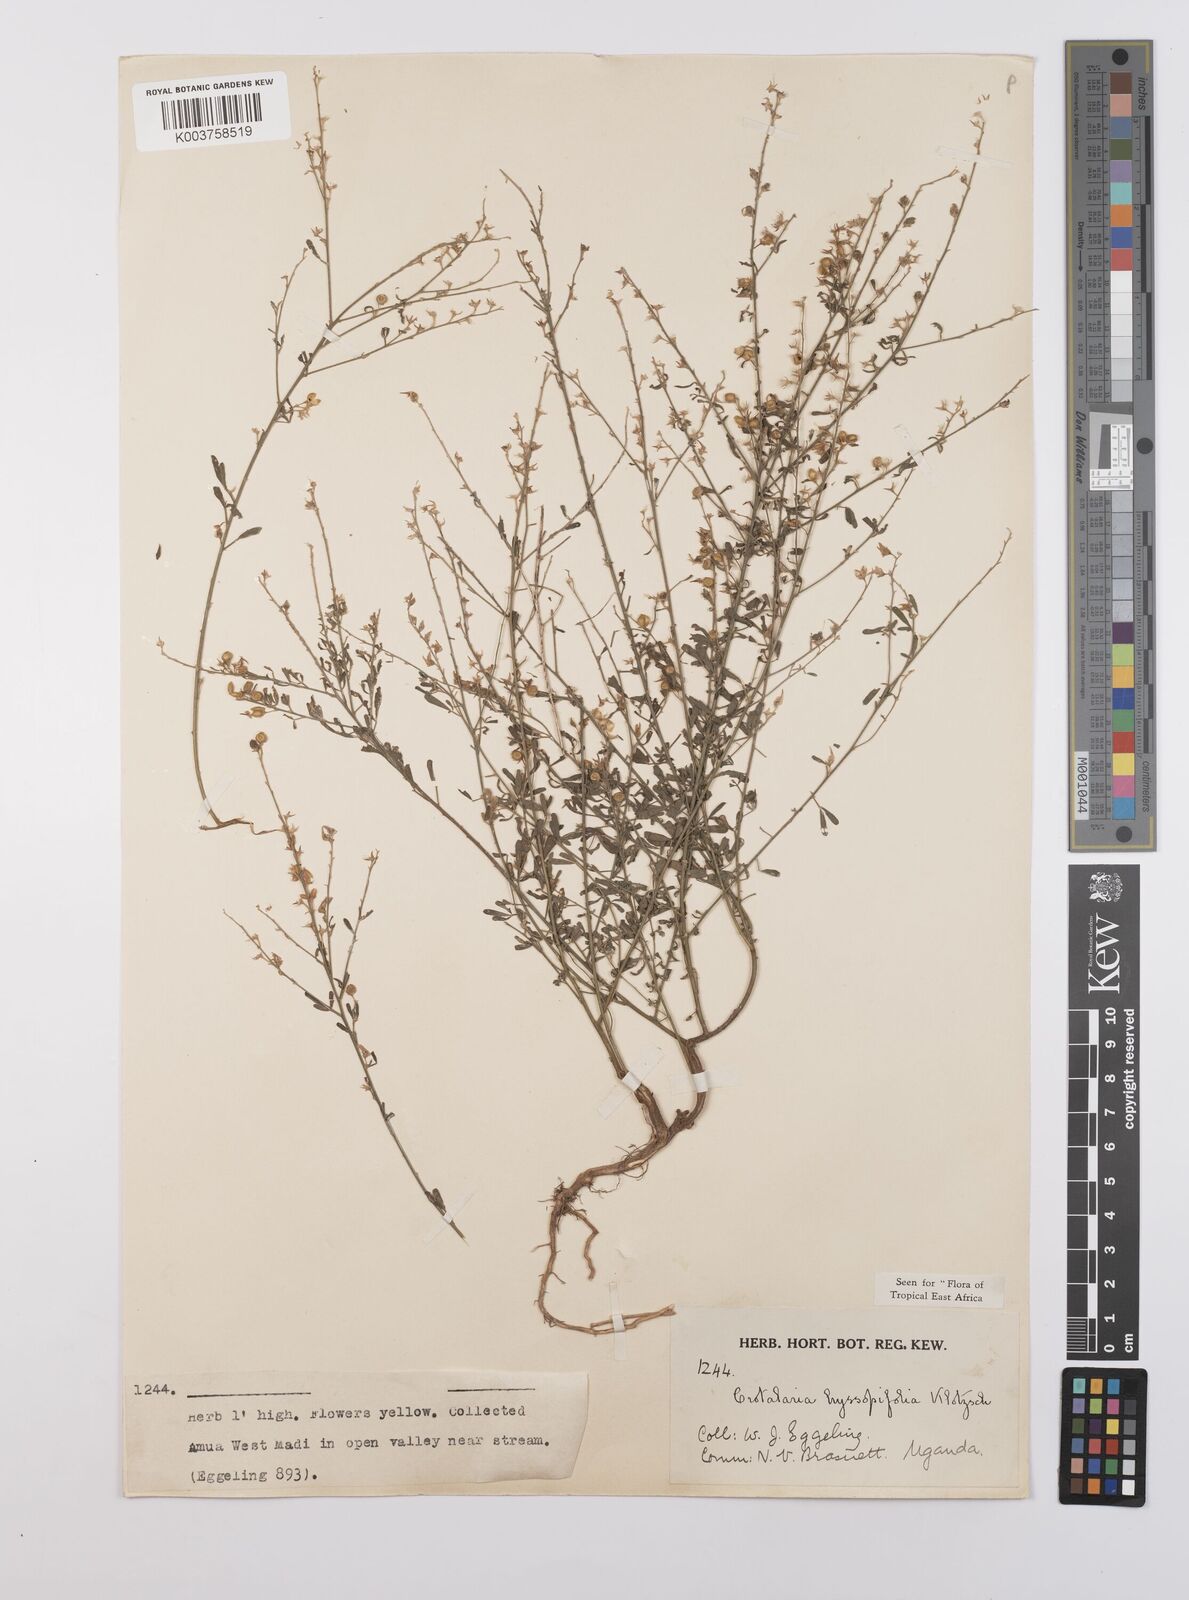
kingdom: Plantae
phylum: Tracheophyta
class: Magnoliopsida
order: Fabales
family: Fabaceae
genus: Crotalaria
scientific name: Crotalaria hyssopifolia
